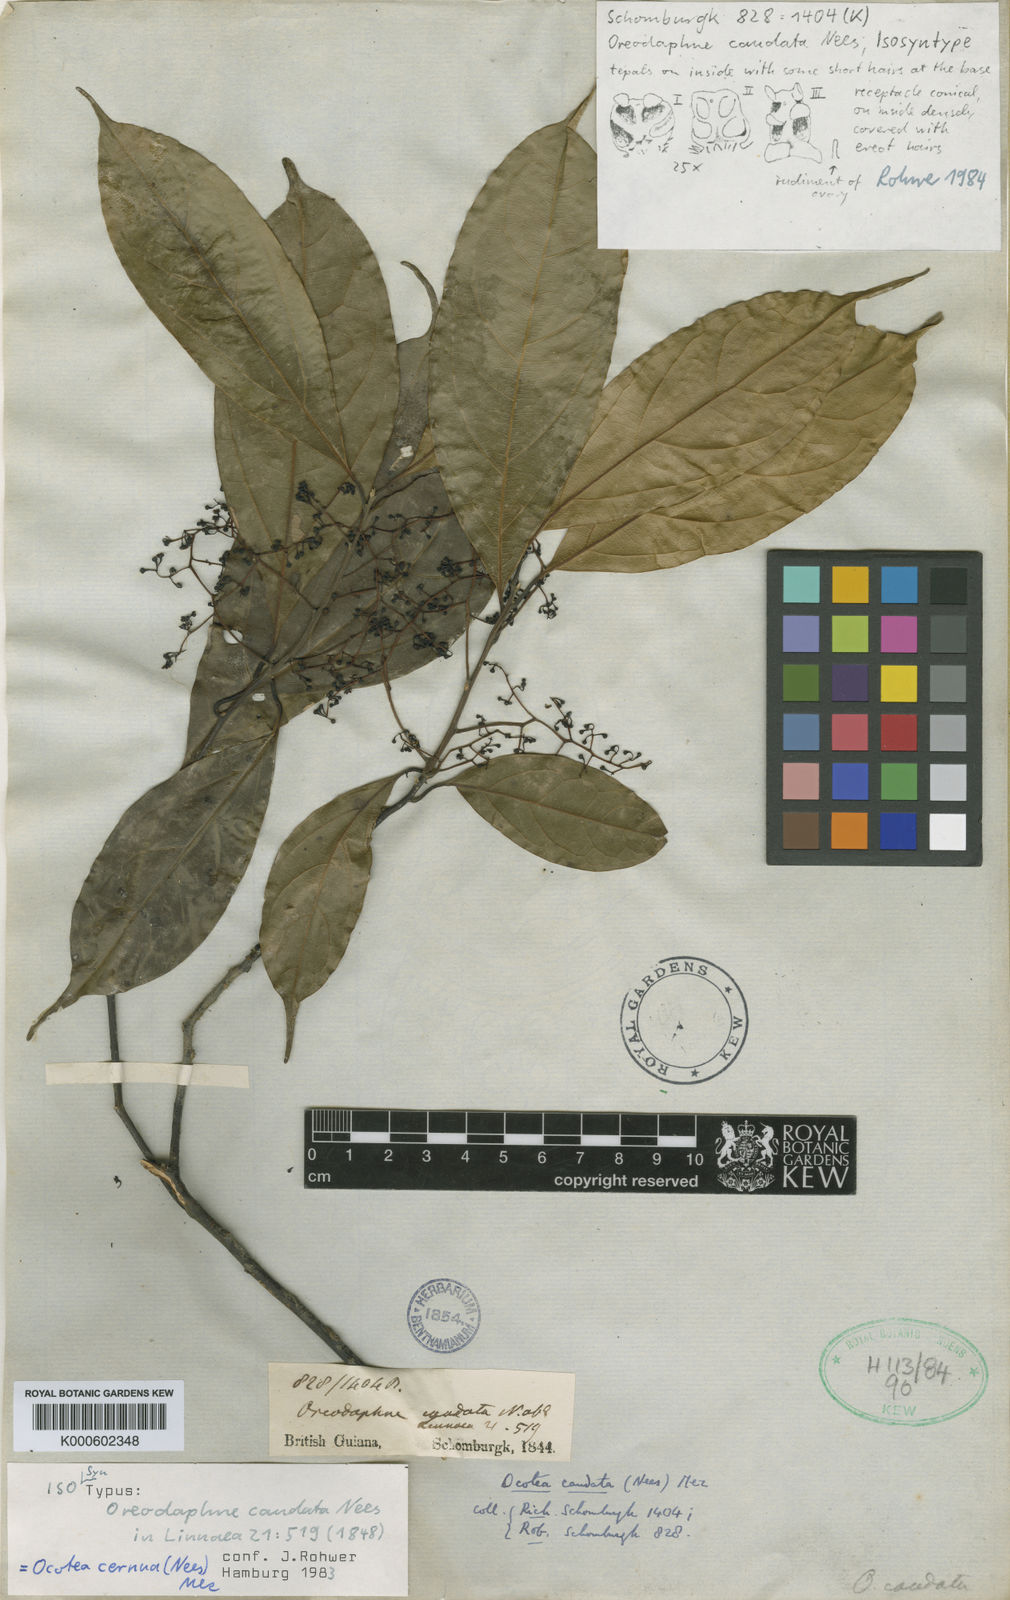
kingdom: Plantae
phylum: Tracheophyta
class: Magnoliopsida
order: Laurales
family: Lauraceae
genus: Ocotea
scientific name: Ocotea leptobotra
